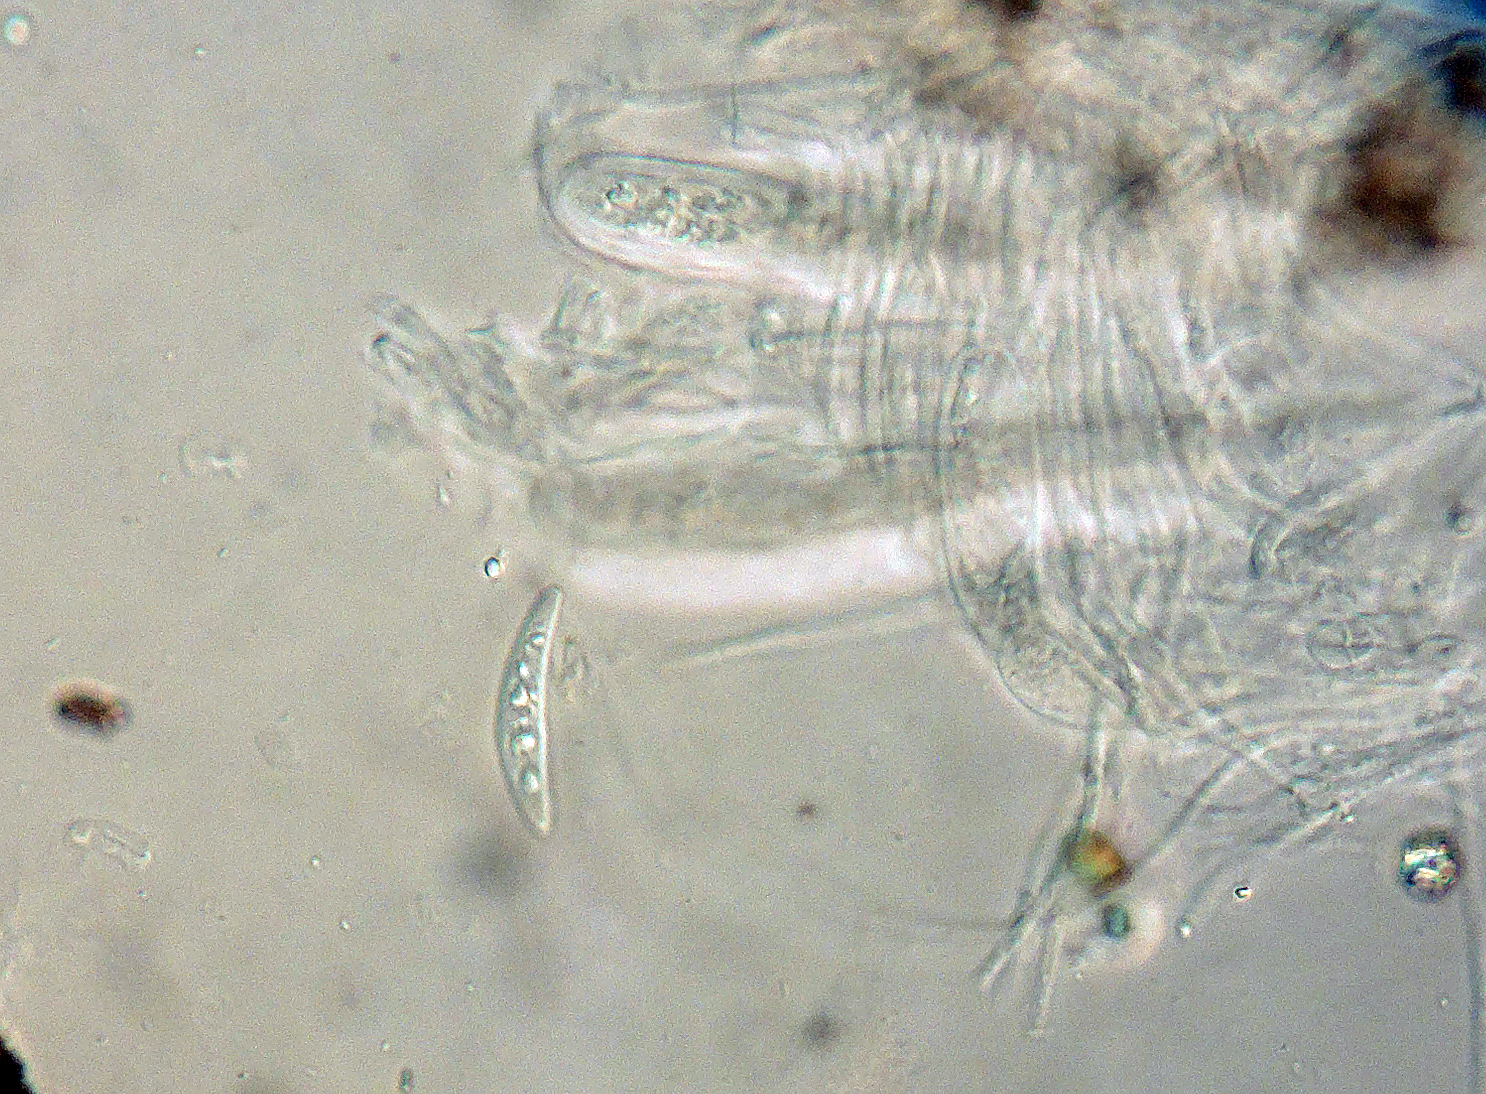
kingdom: Fungi
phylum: Ascomycota
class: Dothideomycetes
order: Pleosporales
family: Melanommataceae
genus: Pseudotrichia
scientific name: Pseudotrichia aurata
